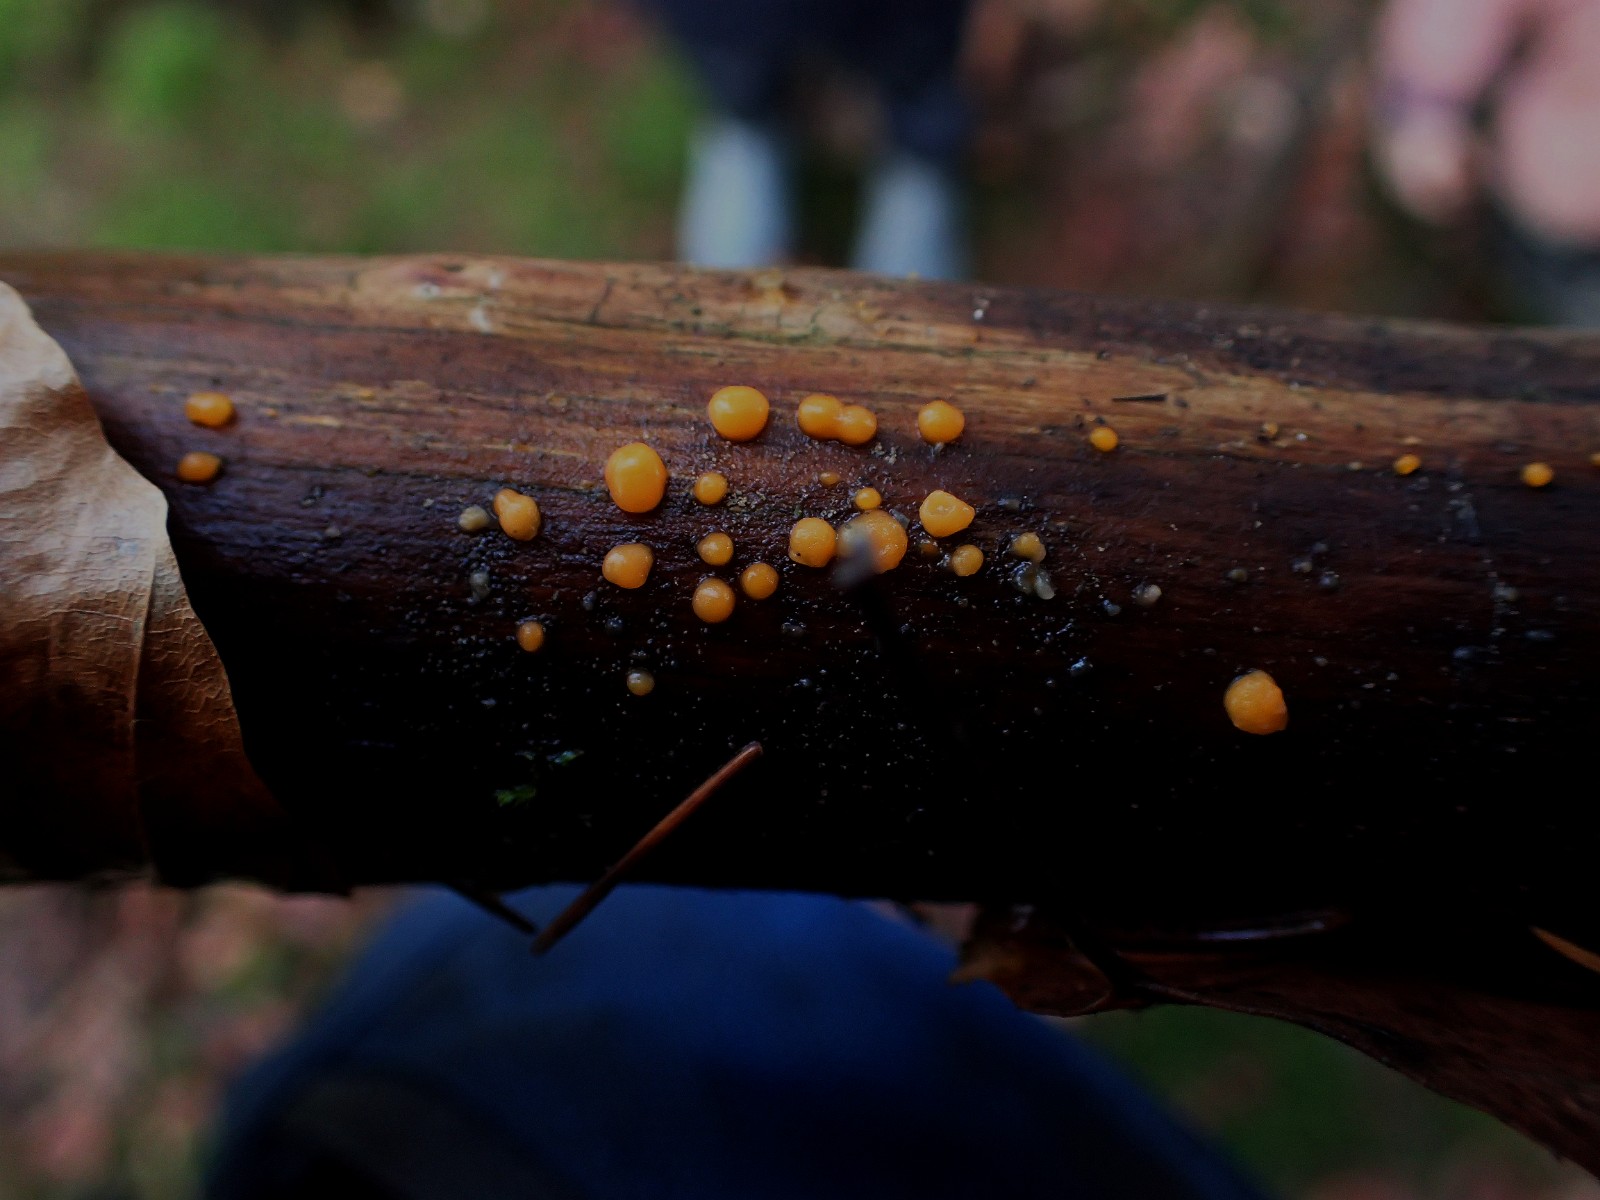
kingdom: Fungi
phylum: Basidiomycota
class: Dacrymycetes
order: Dacrymycetales
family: Dacrymycetaceae
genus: Dacrymyces
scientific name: Dacrymyces stillatus
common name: almindelig tåresvamp
